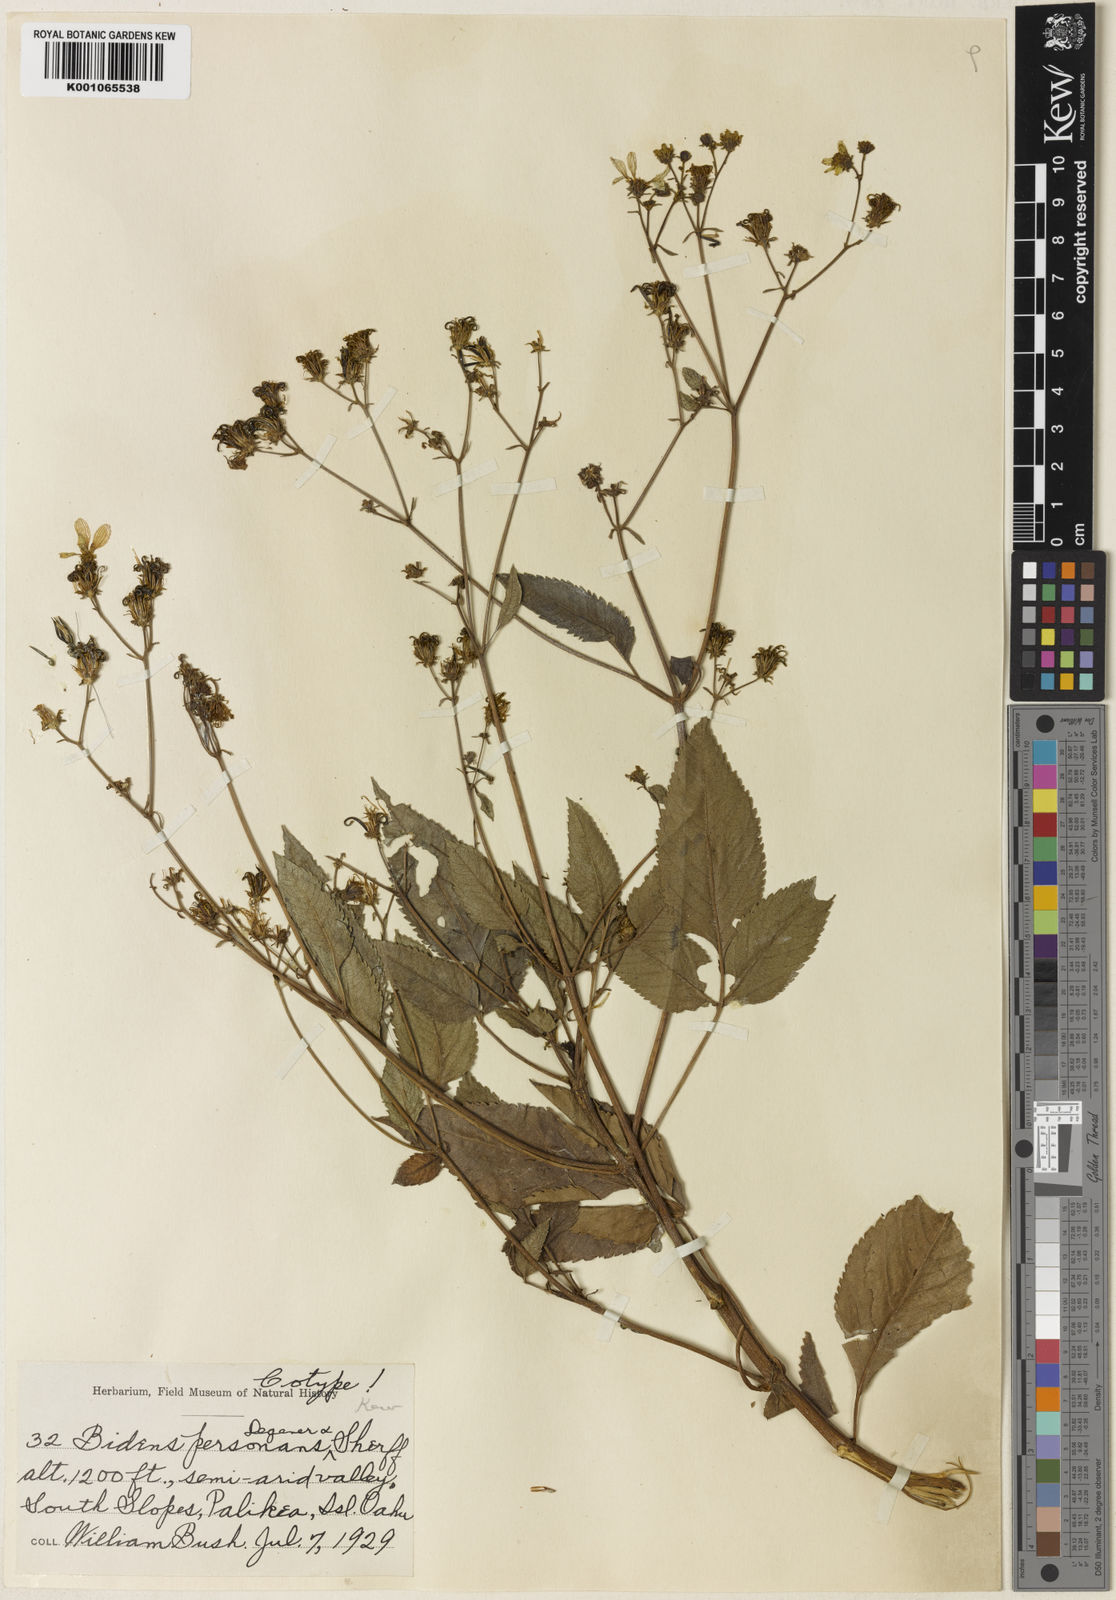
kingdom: Plantae
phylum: Tracheophyta
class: Magnoliopsida
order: Asterales
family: Asteraceae
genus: Bidens
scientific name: Bidens torta
